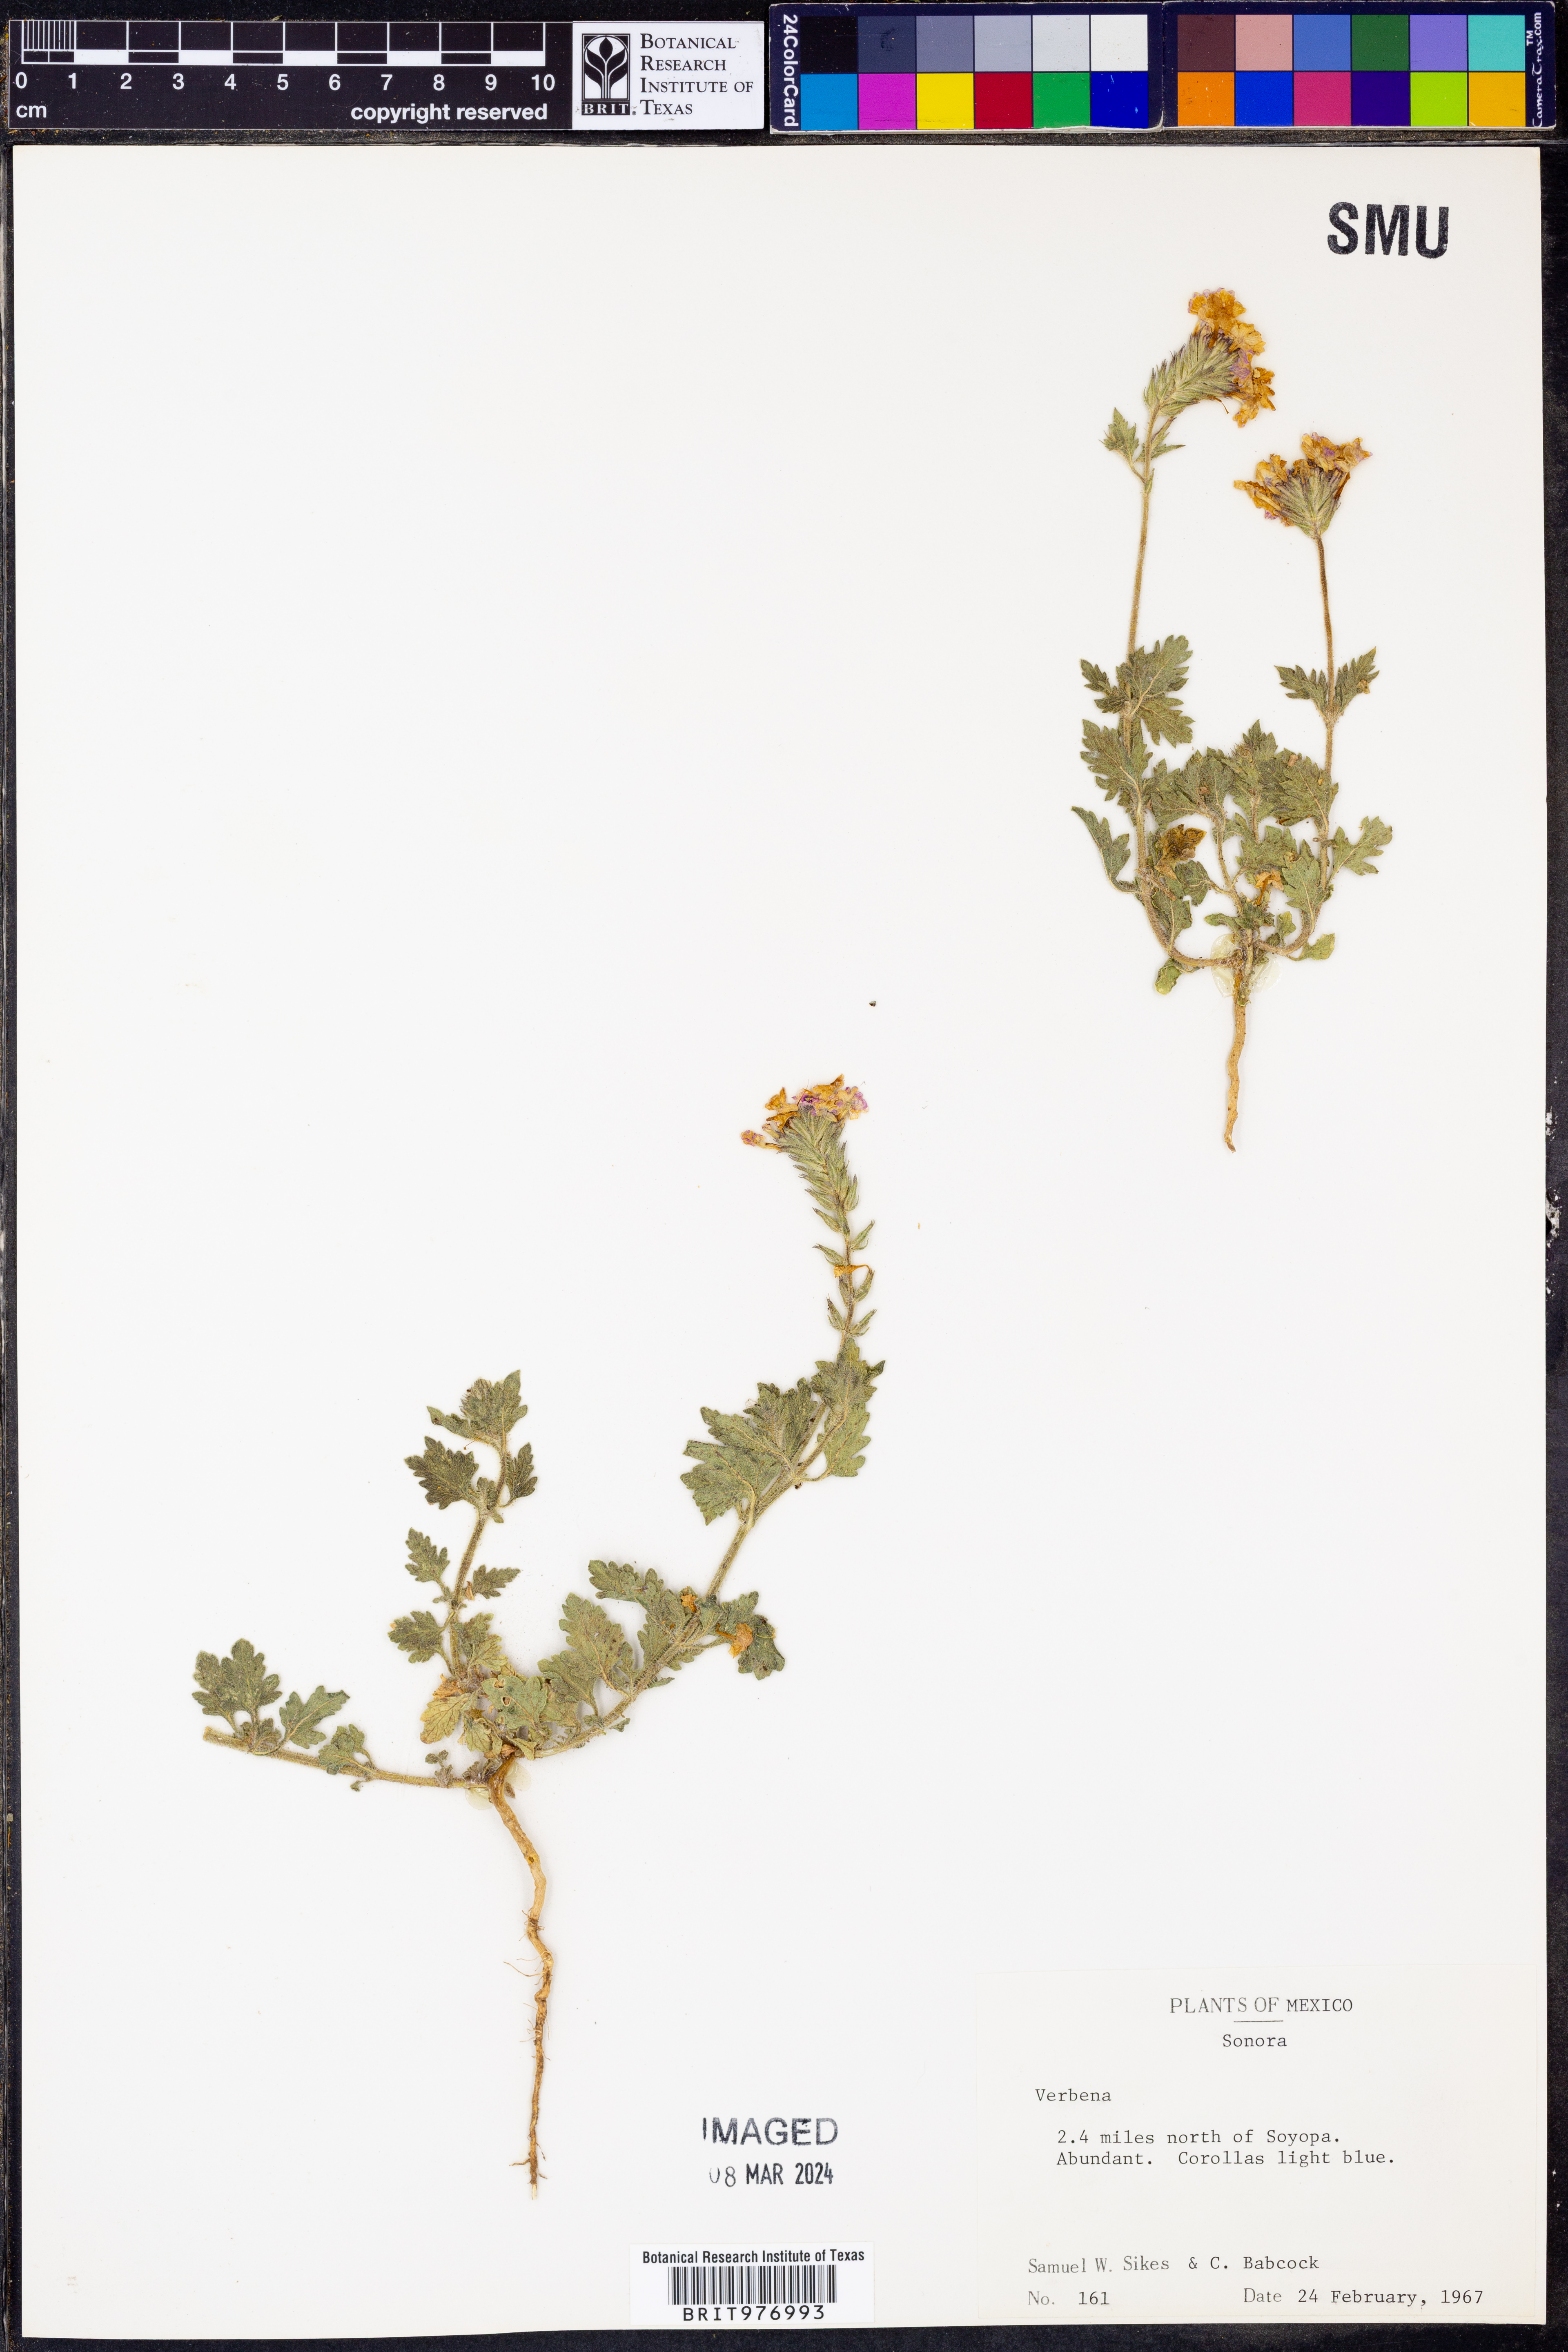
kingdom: Plantae
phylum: Tracheophyta
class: Magnoliopsida
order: Lamiales
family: Verbenaceae
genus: Verbena
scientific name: Verbena gooddingii
